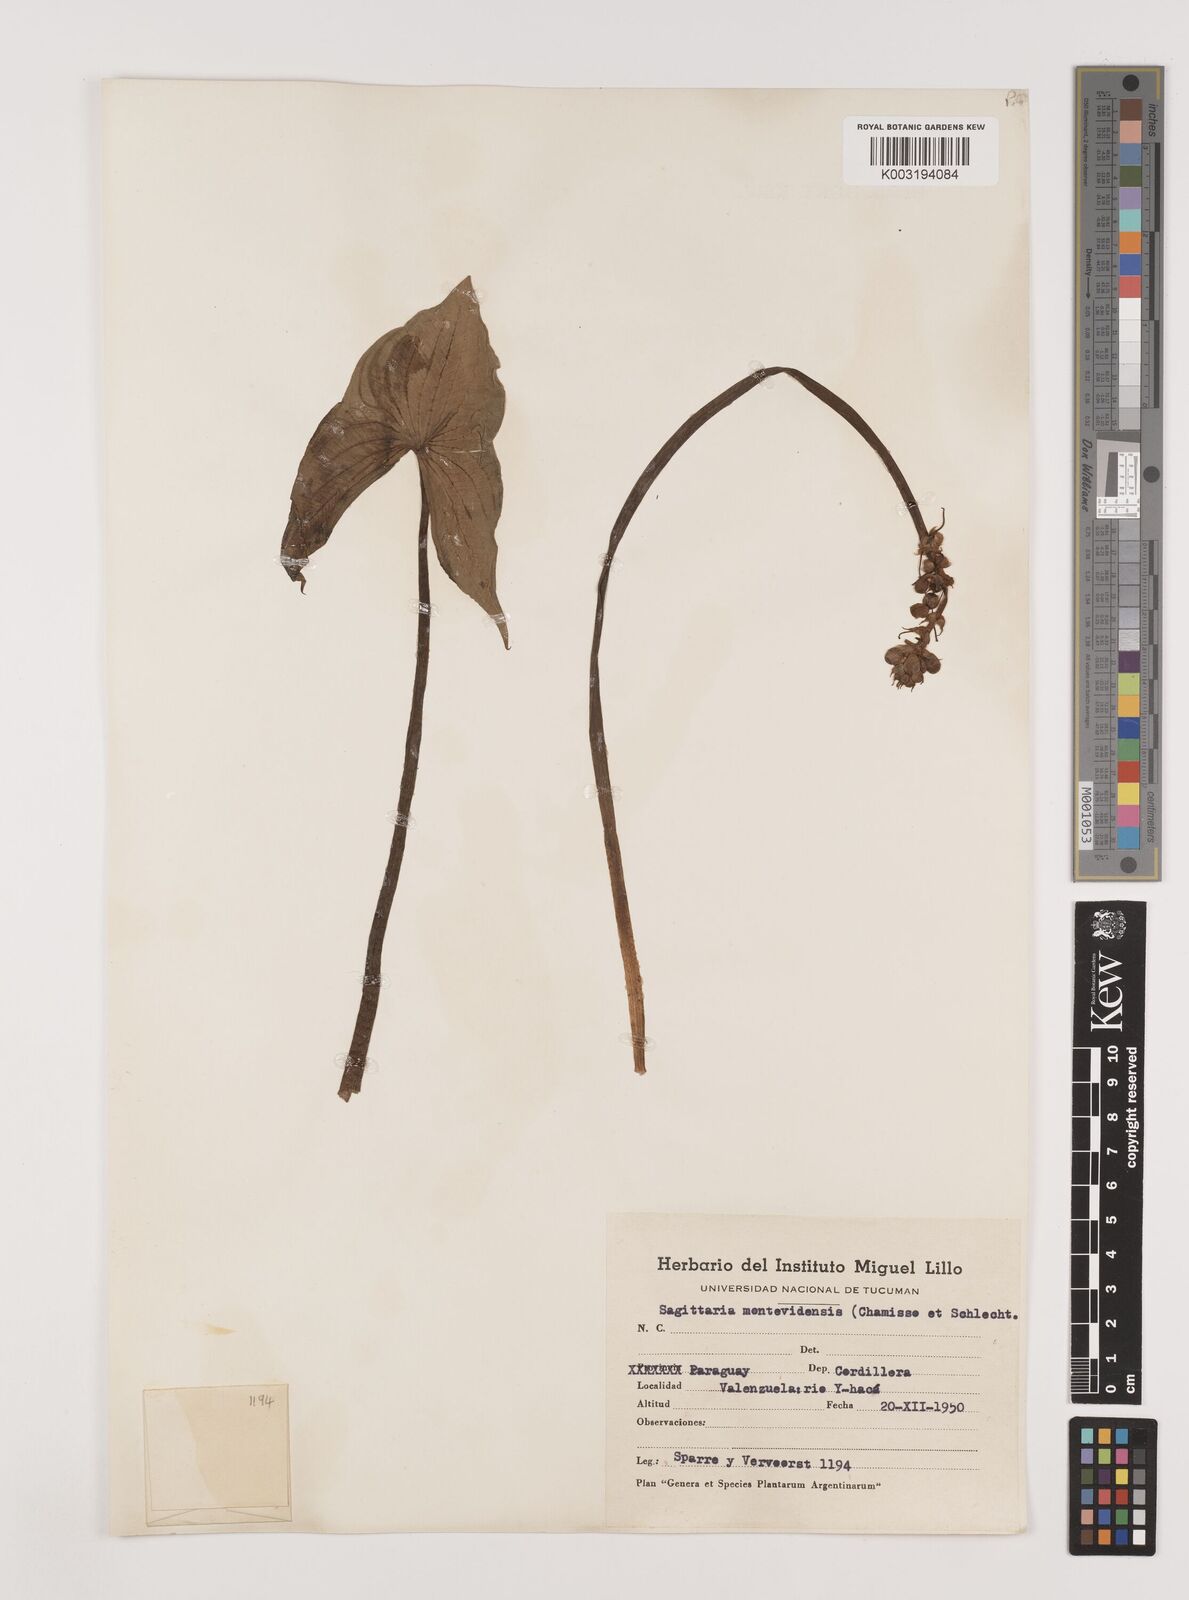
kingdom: Plantae
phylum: Tracheophyta
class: Liliopsida
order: Alismatales
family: Alismataceae
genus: Sagittaria
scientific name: Sagittaria montevidensis
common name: Giant arrowhead
